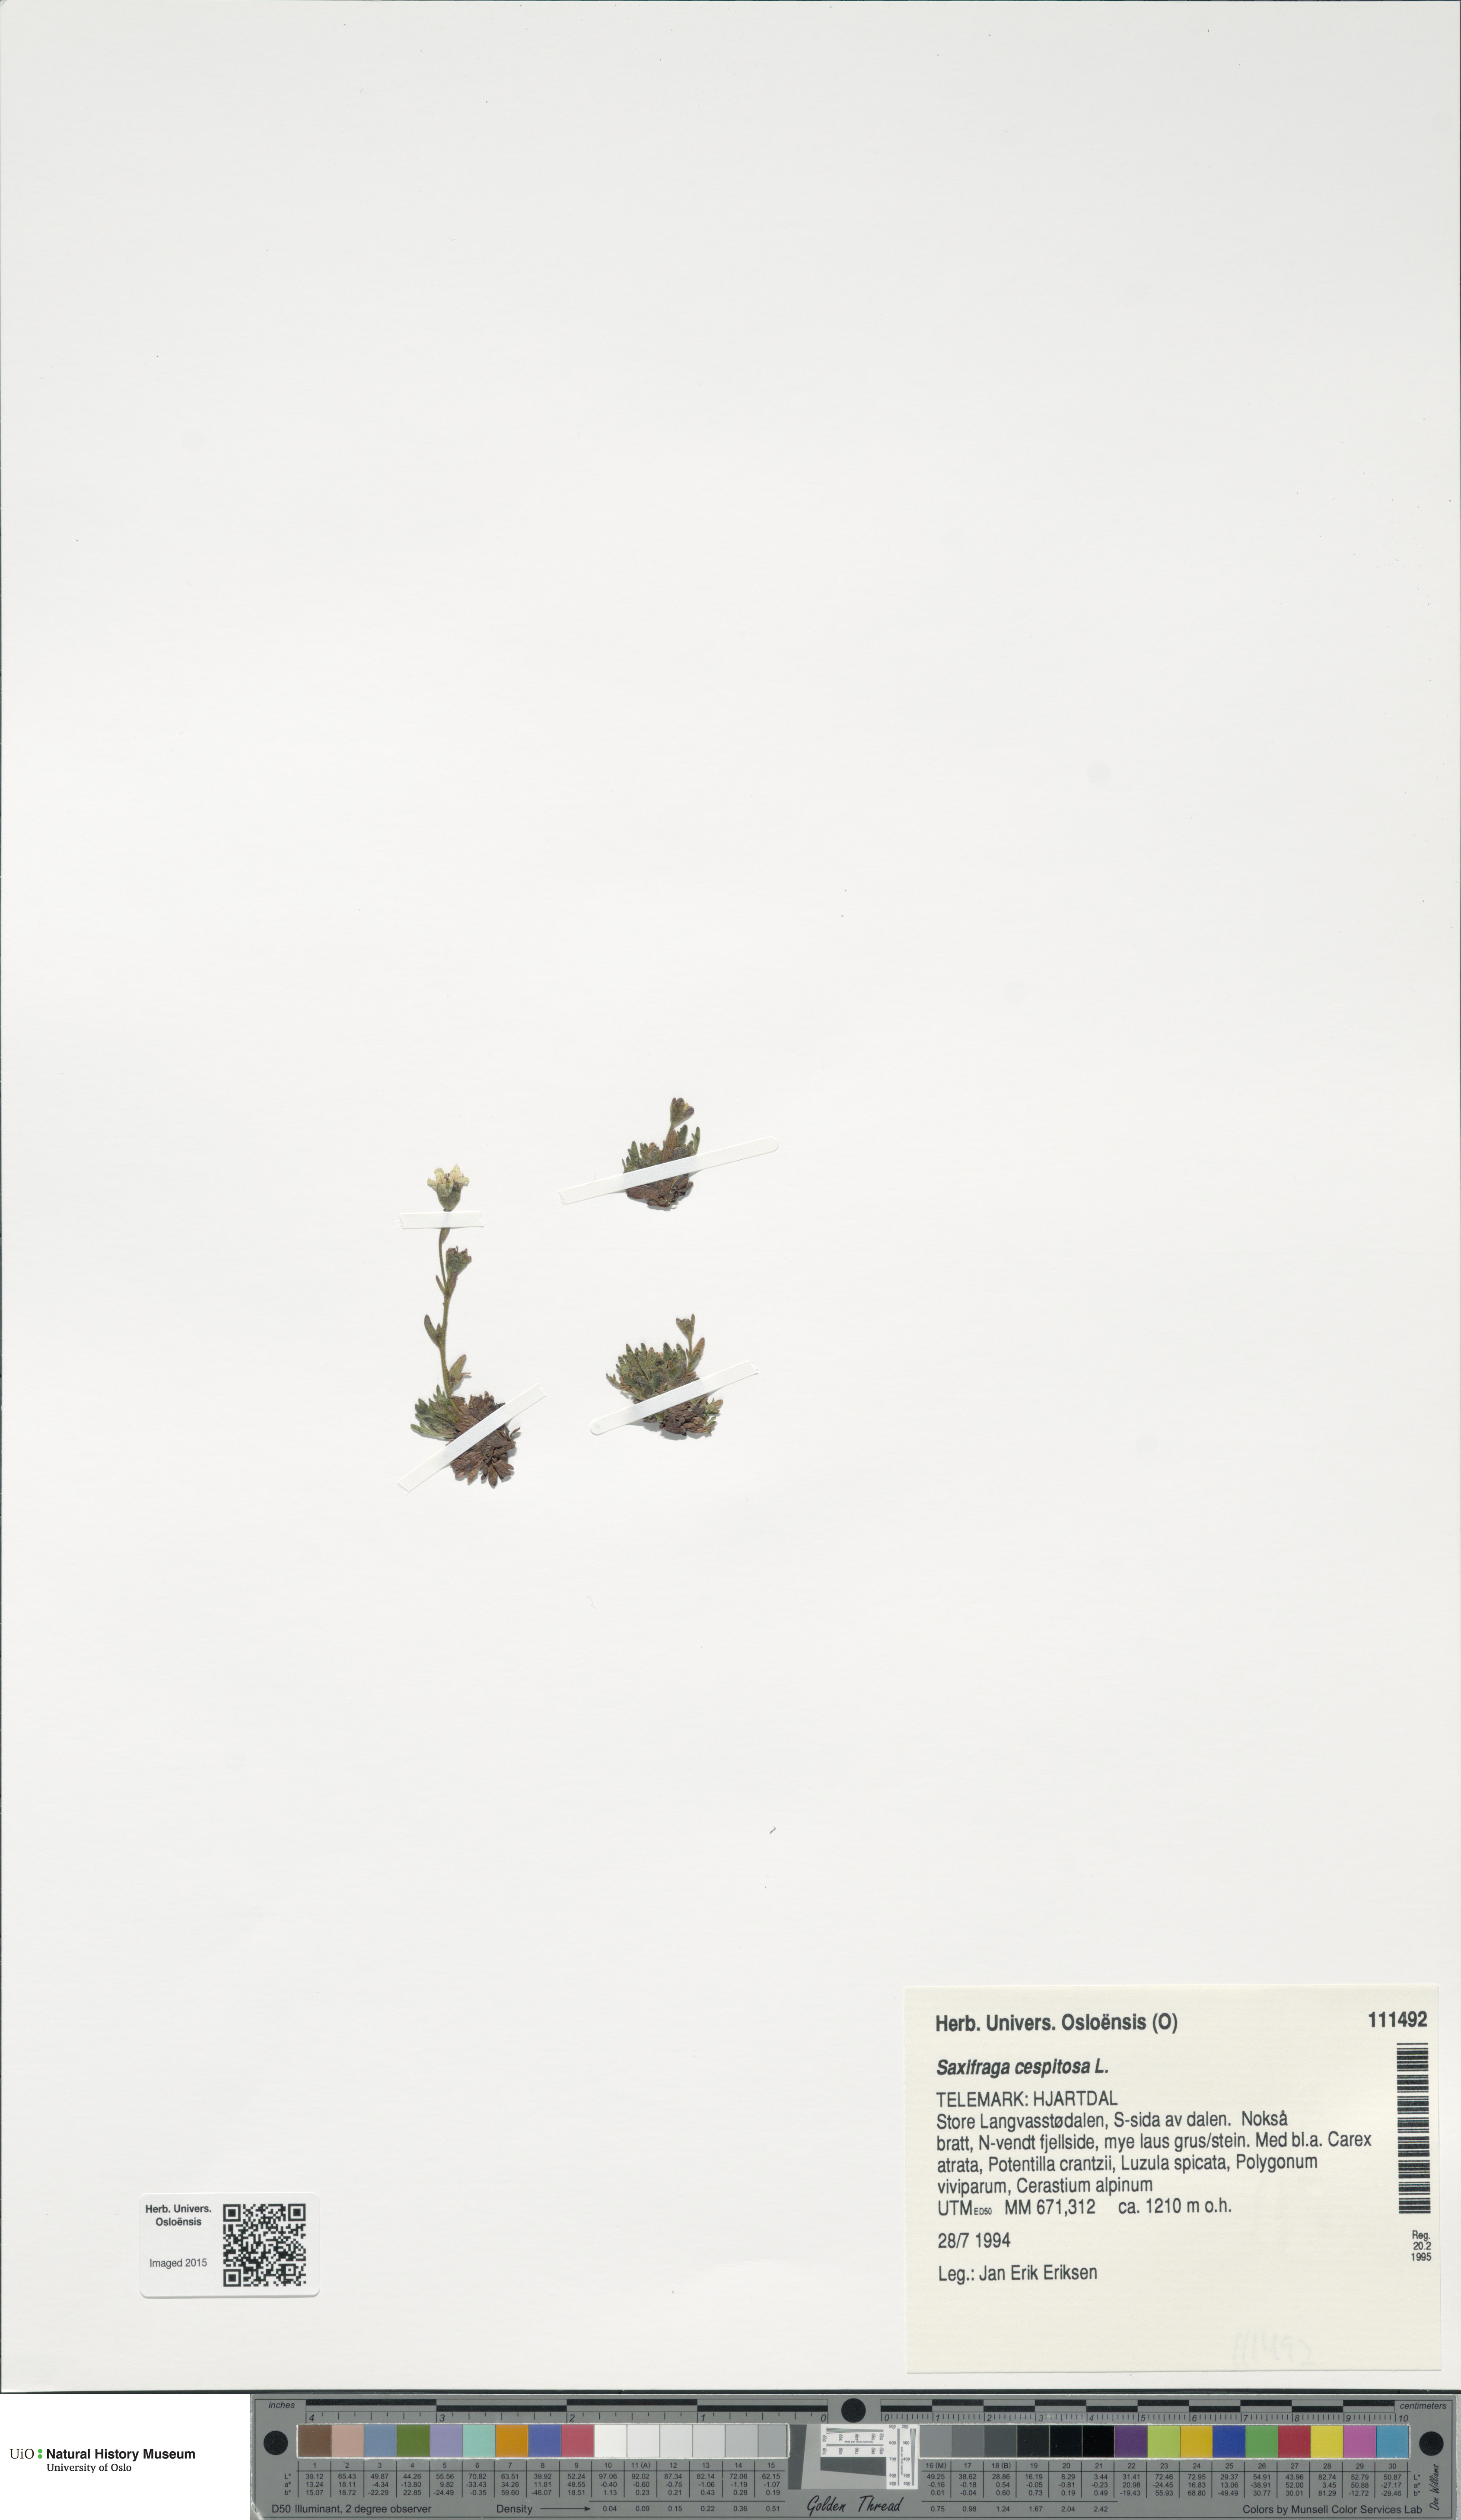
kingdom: Plantae
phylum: Tracheophyta
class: Magnoliopsida
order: Saxifragales
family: Saxifragaceae
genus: Saxifraga
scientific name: Saxifraga cespitosa
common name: Tufted saxifrage
